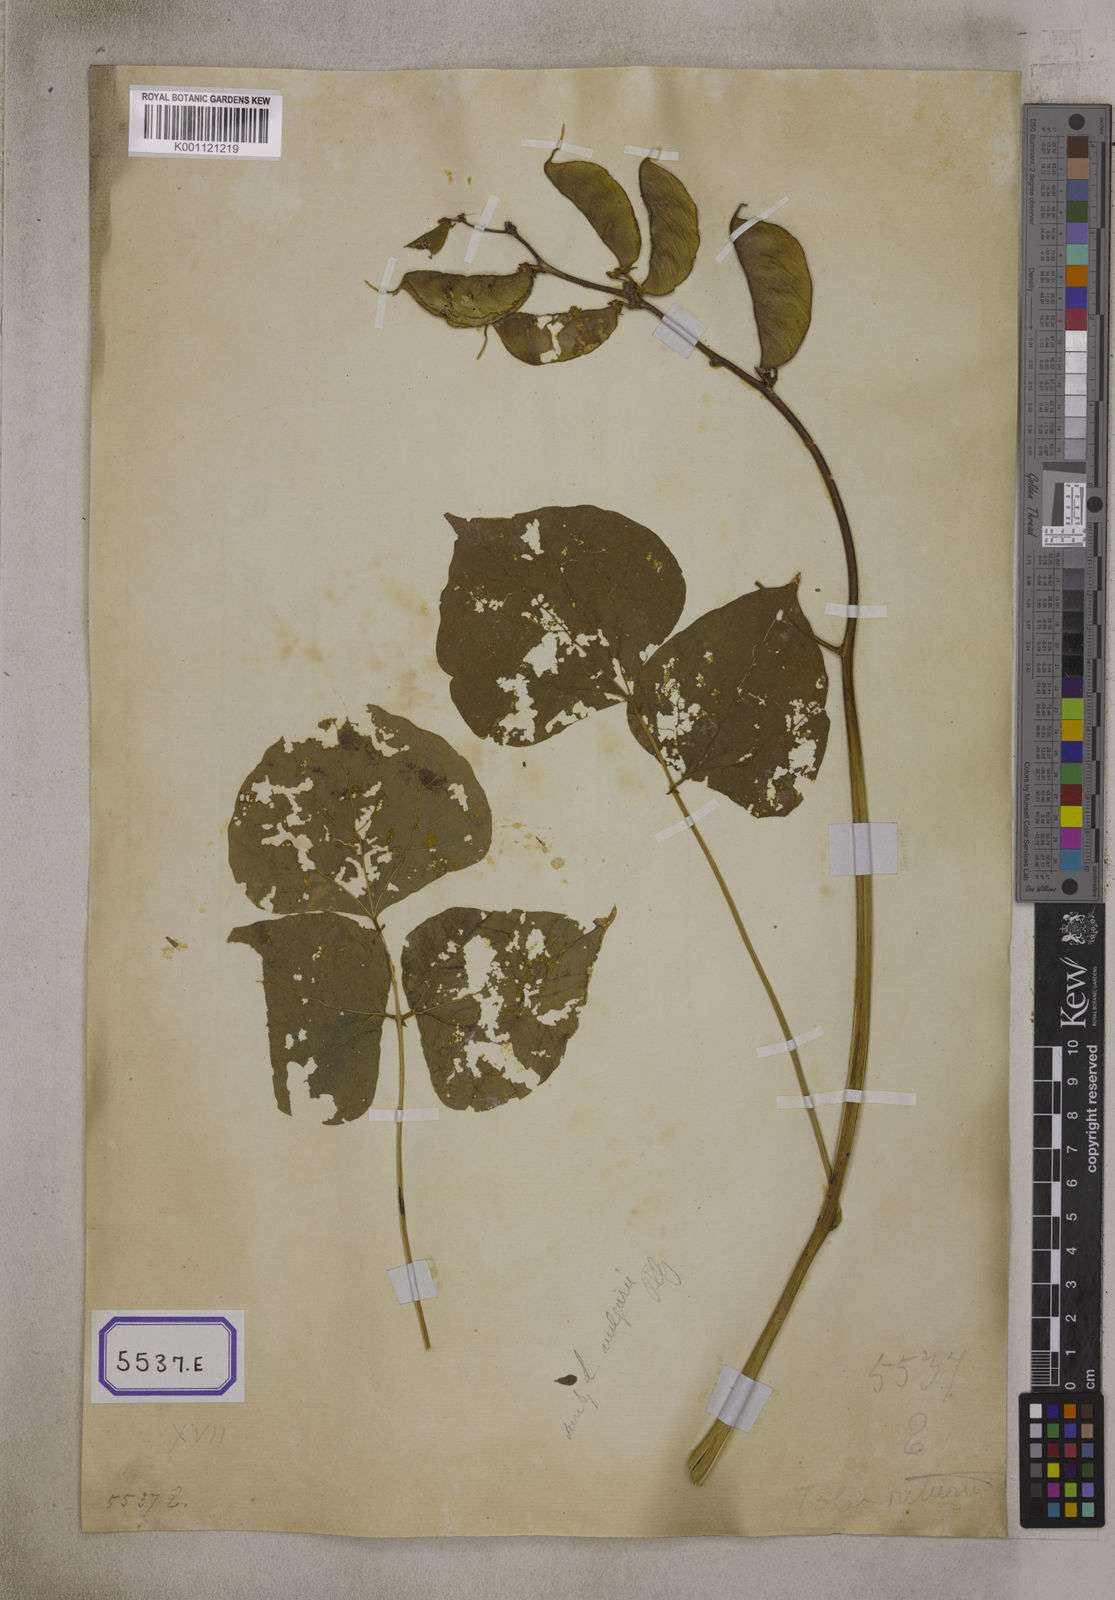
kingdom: Plantae
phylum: Tracheophyta
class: Magnoliopsida
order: Fabales
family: Fabaceae
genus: Lablab
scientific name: Lablab purpureus
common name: Lablab-bean
